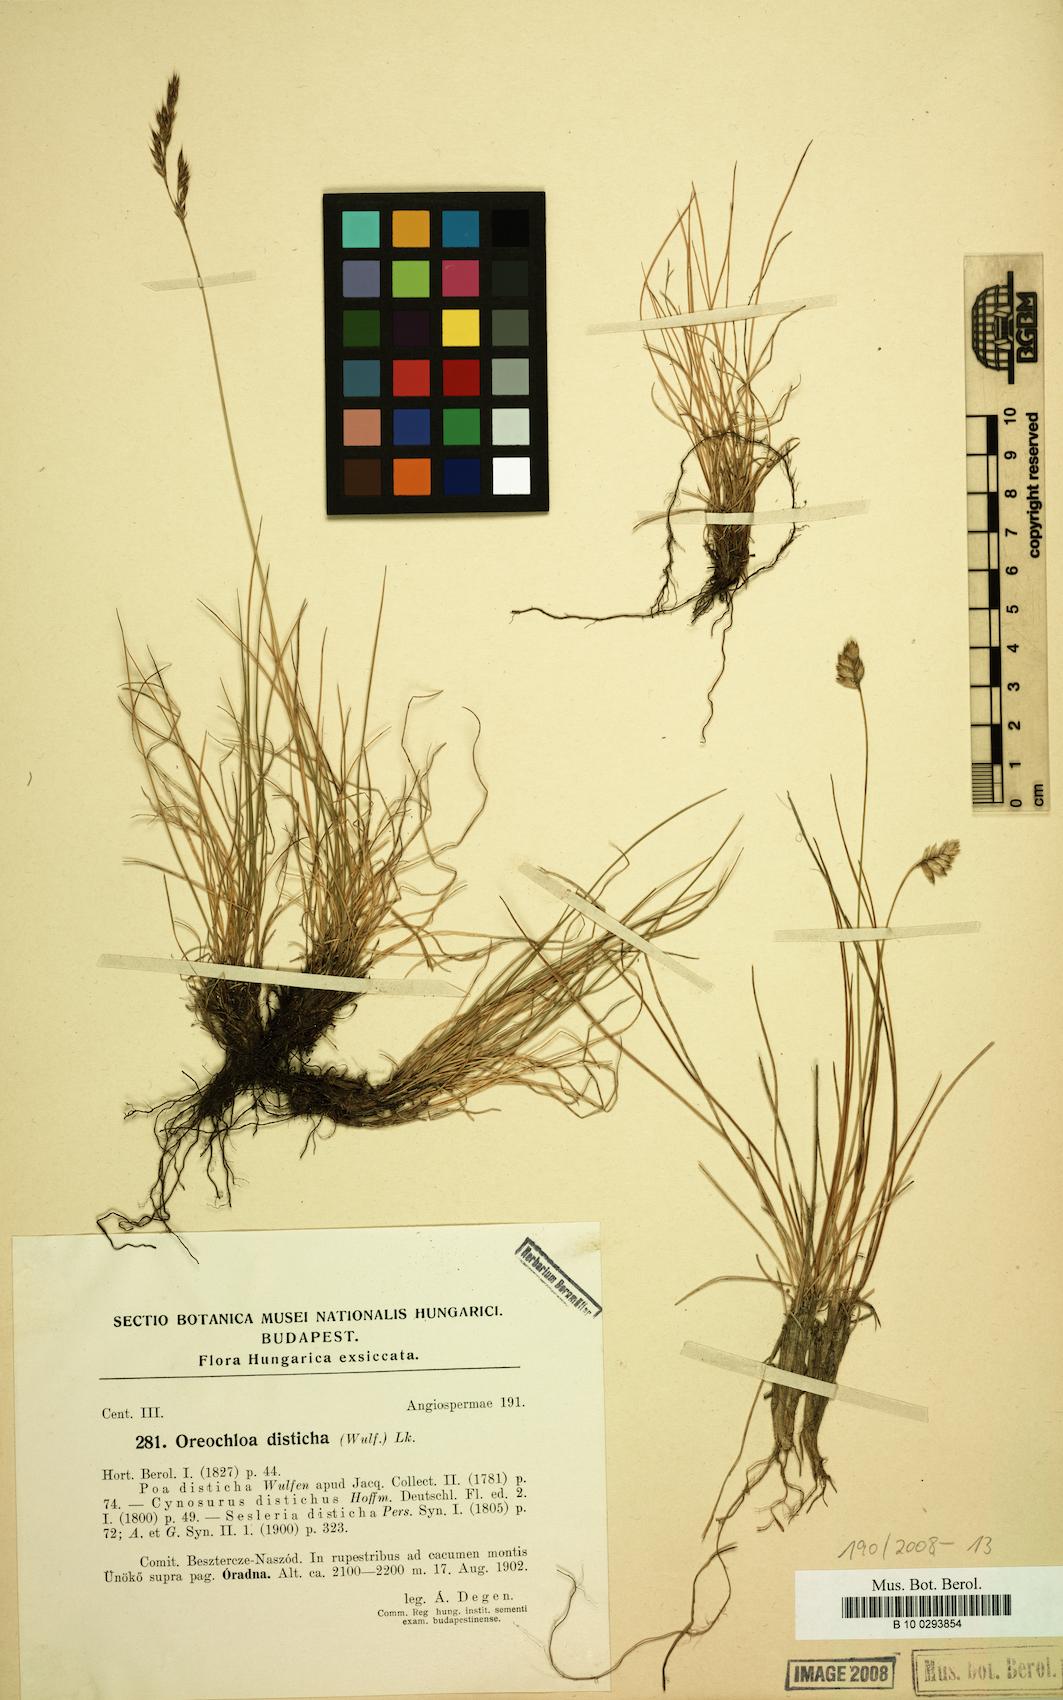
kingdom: Plantae
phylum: Tracheophyta
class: Liliopsida
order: Poales
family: Poaceae
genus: Oreochloa
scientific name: Oreochloa disticha
